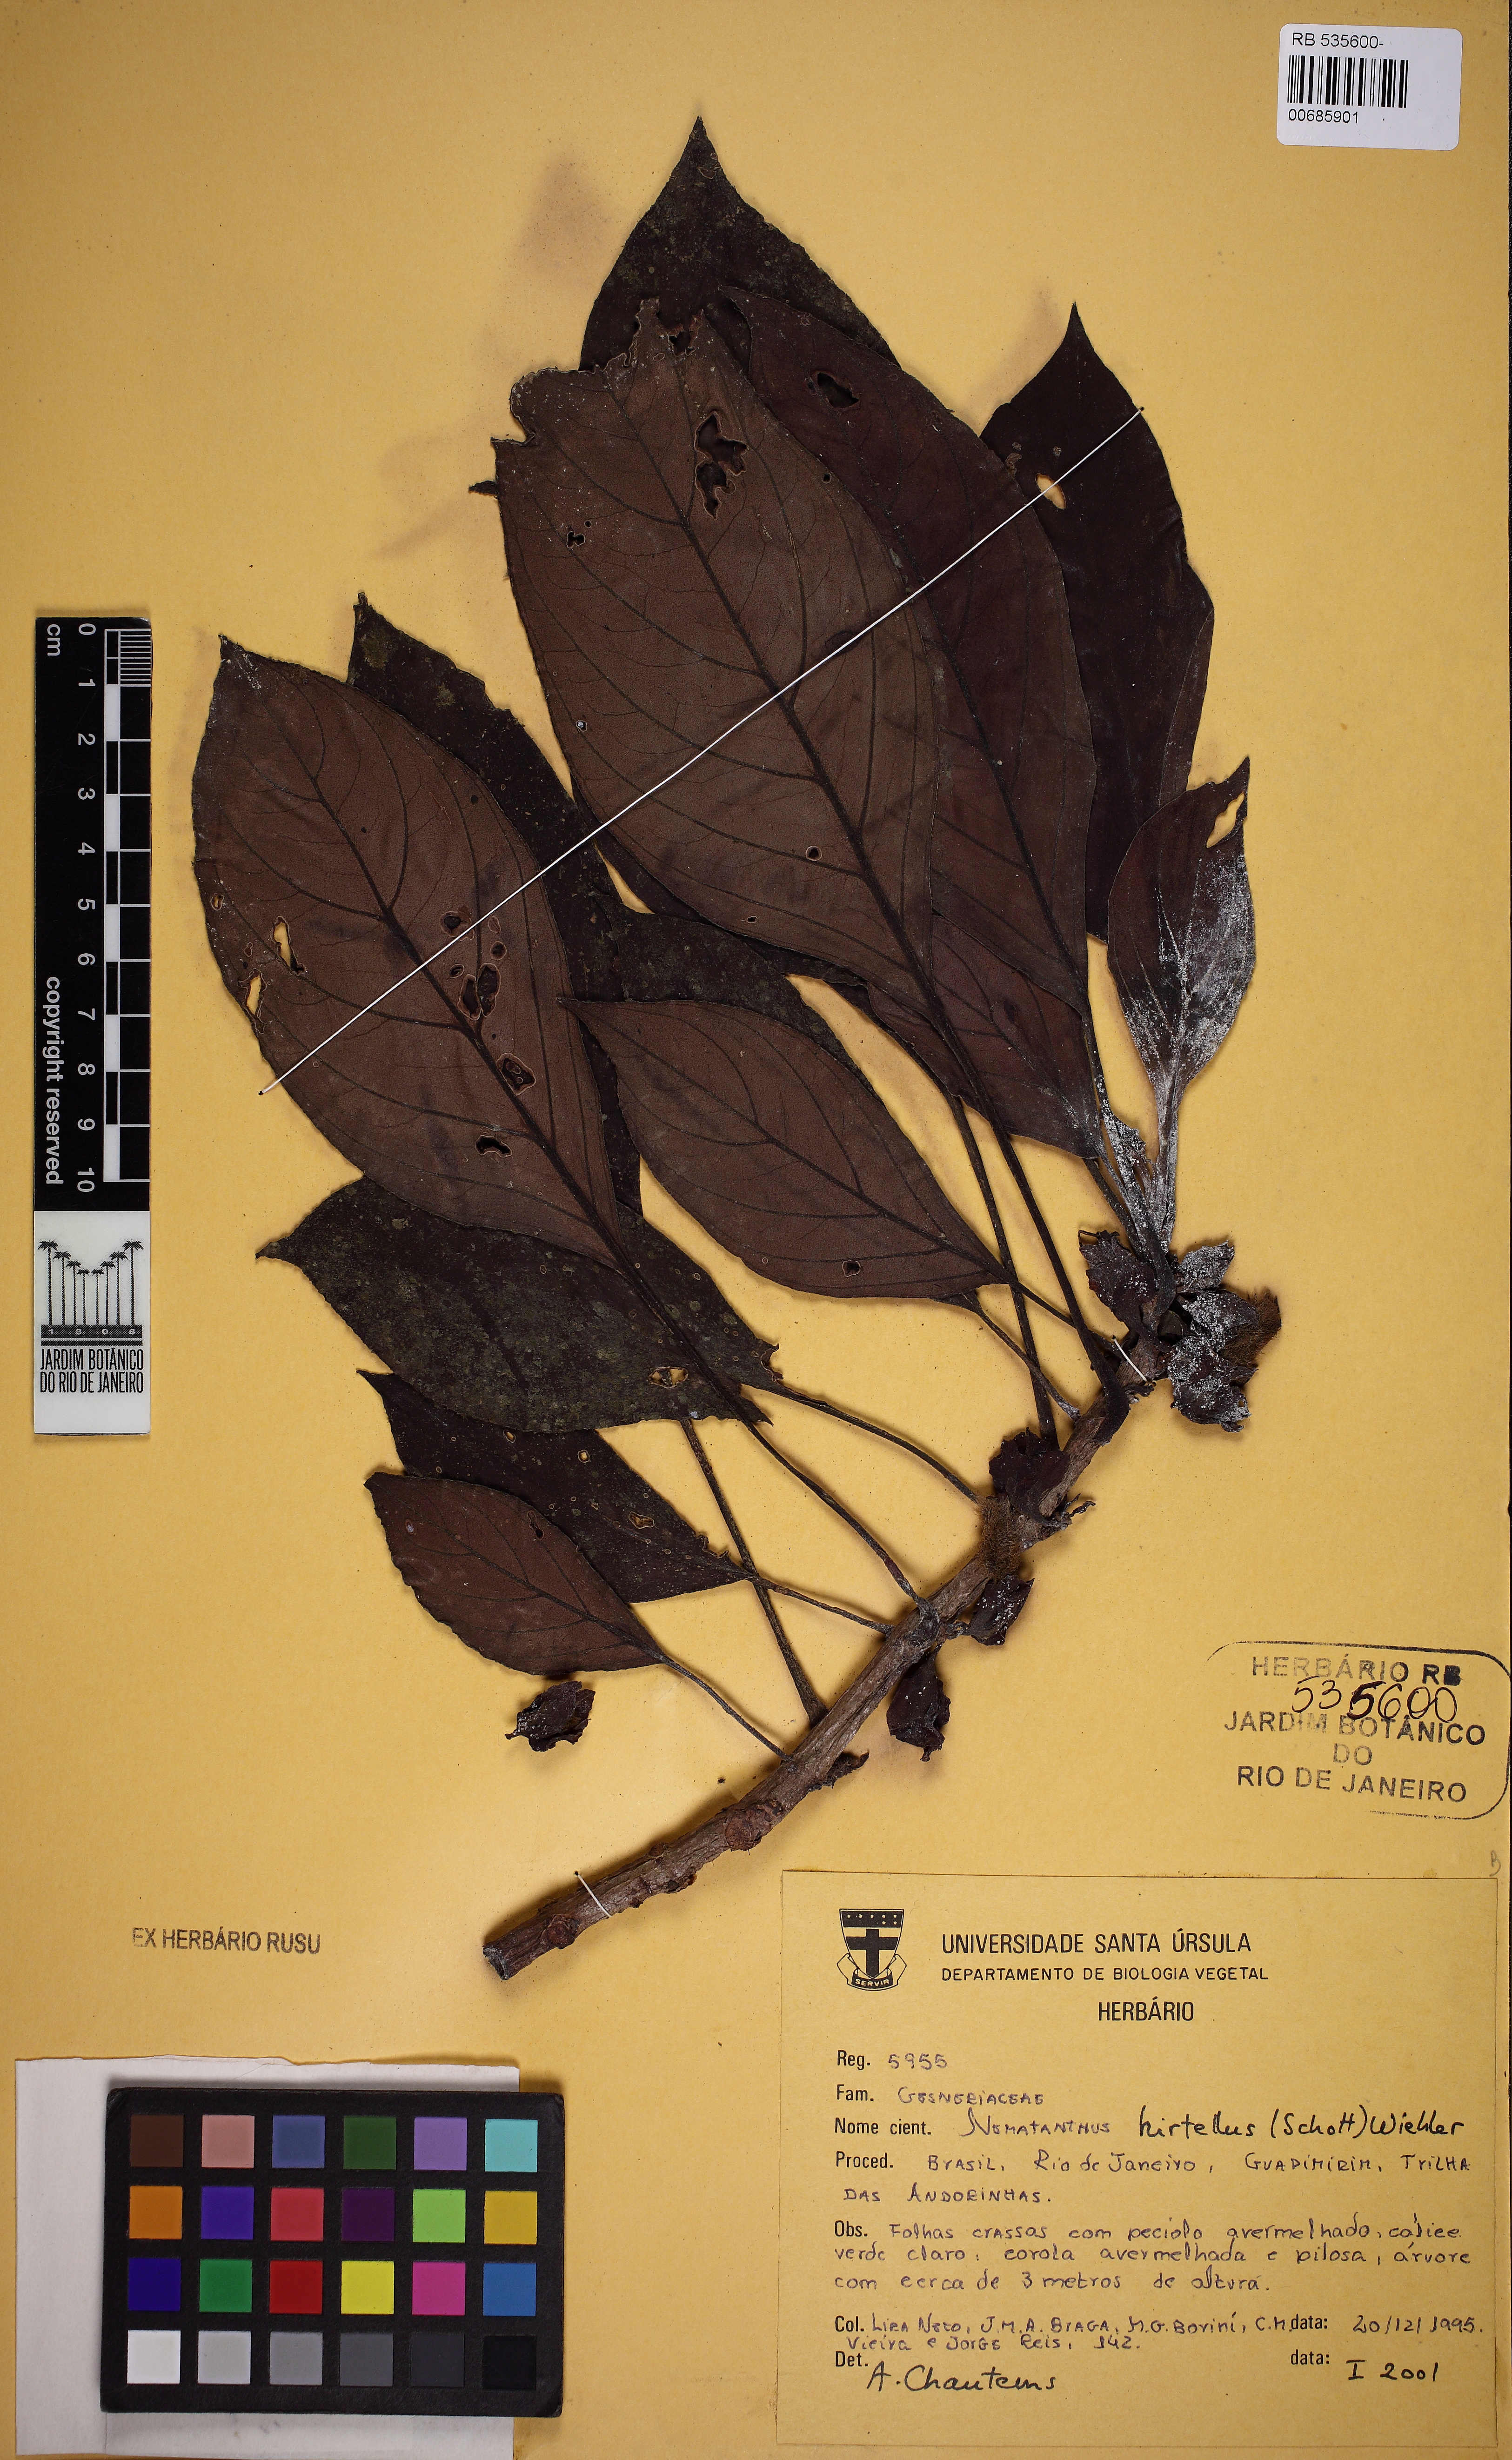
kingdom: Plantae
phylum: Tracheophyta
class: Magnoliopsida
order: Lamiales
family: Gesneriaceae
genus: Nematanthus
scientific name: Nematanthus hirtellus
